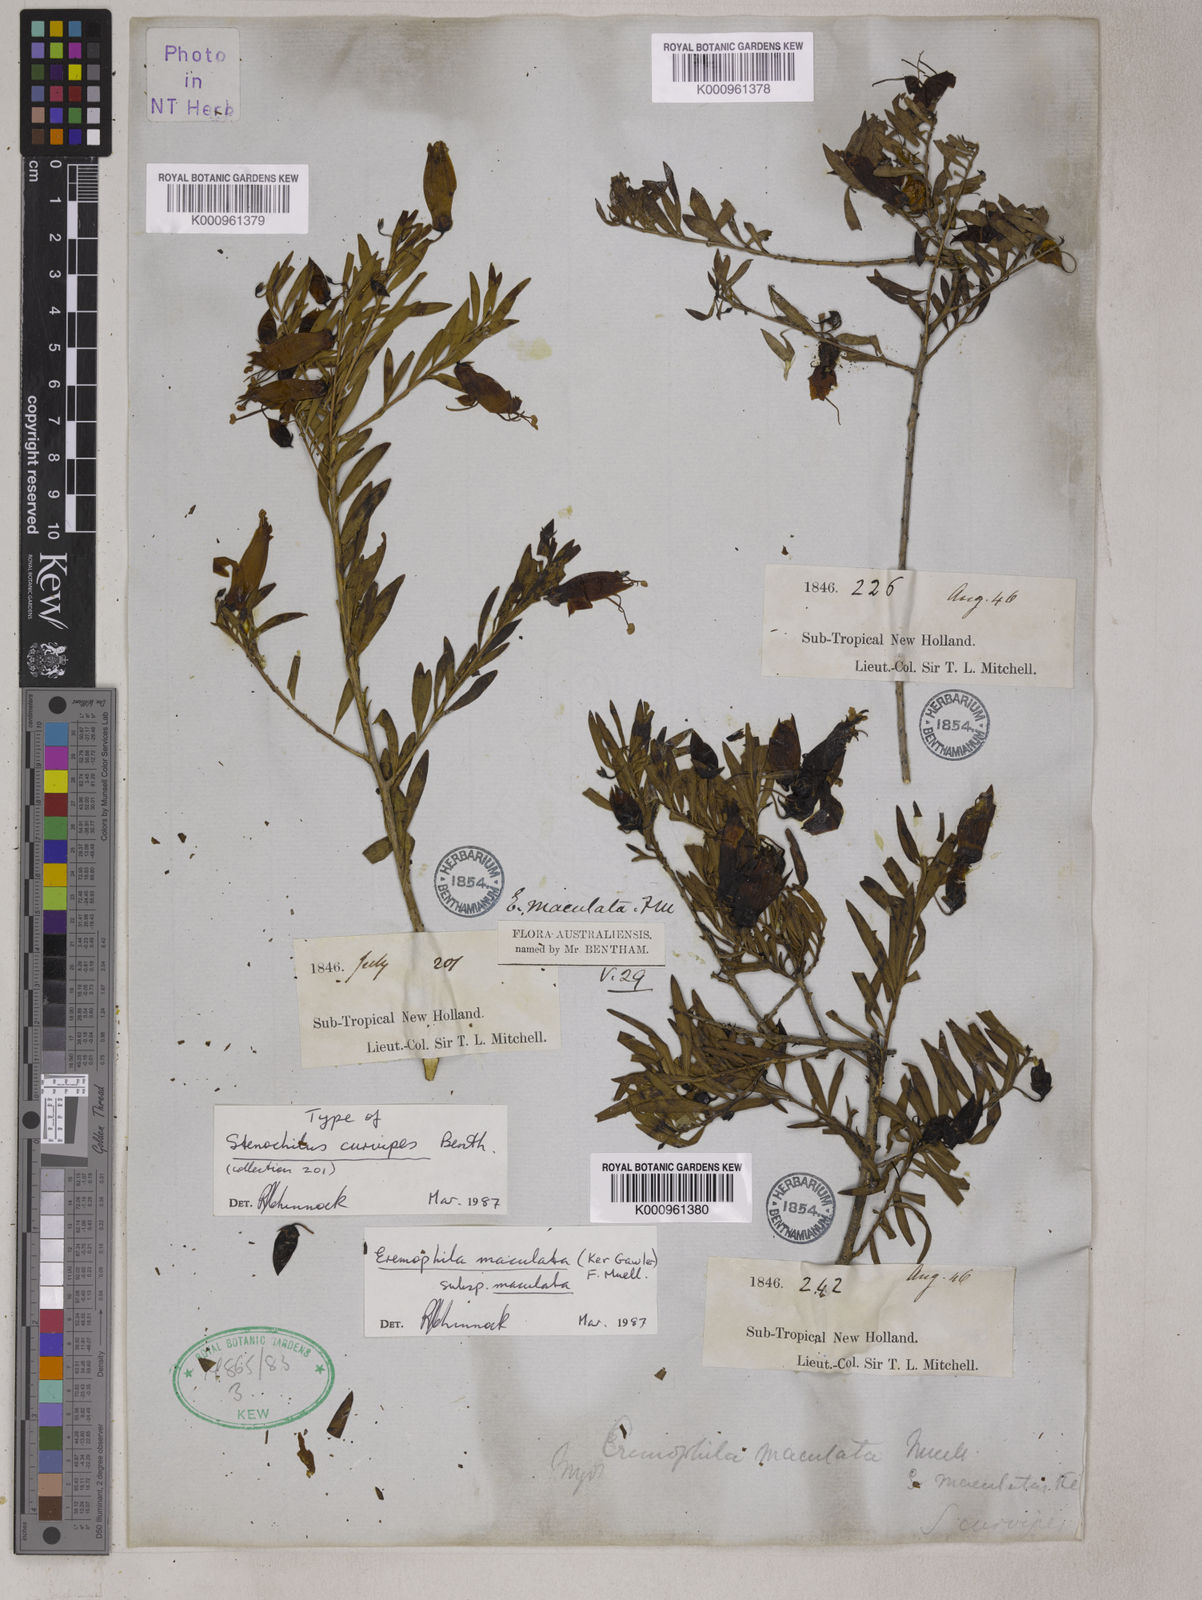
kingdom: Plantae
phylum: Tracheophyta
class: Magnoliopsida
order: Lamiales
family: Scrophulariaceae
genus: Eremophila
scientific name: Eremophila
